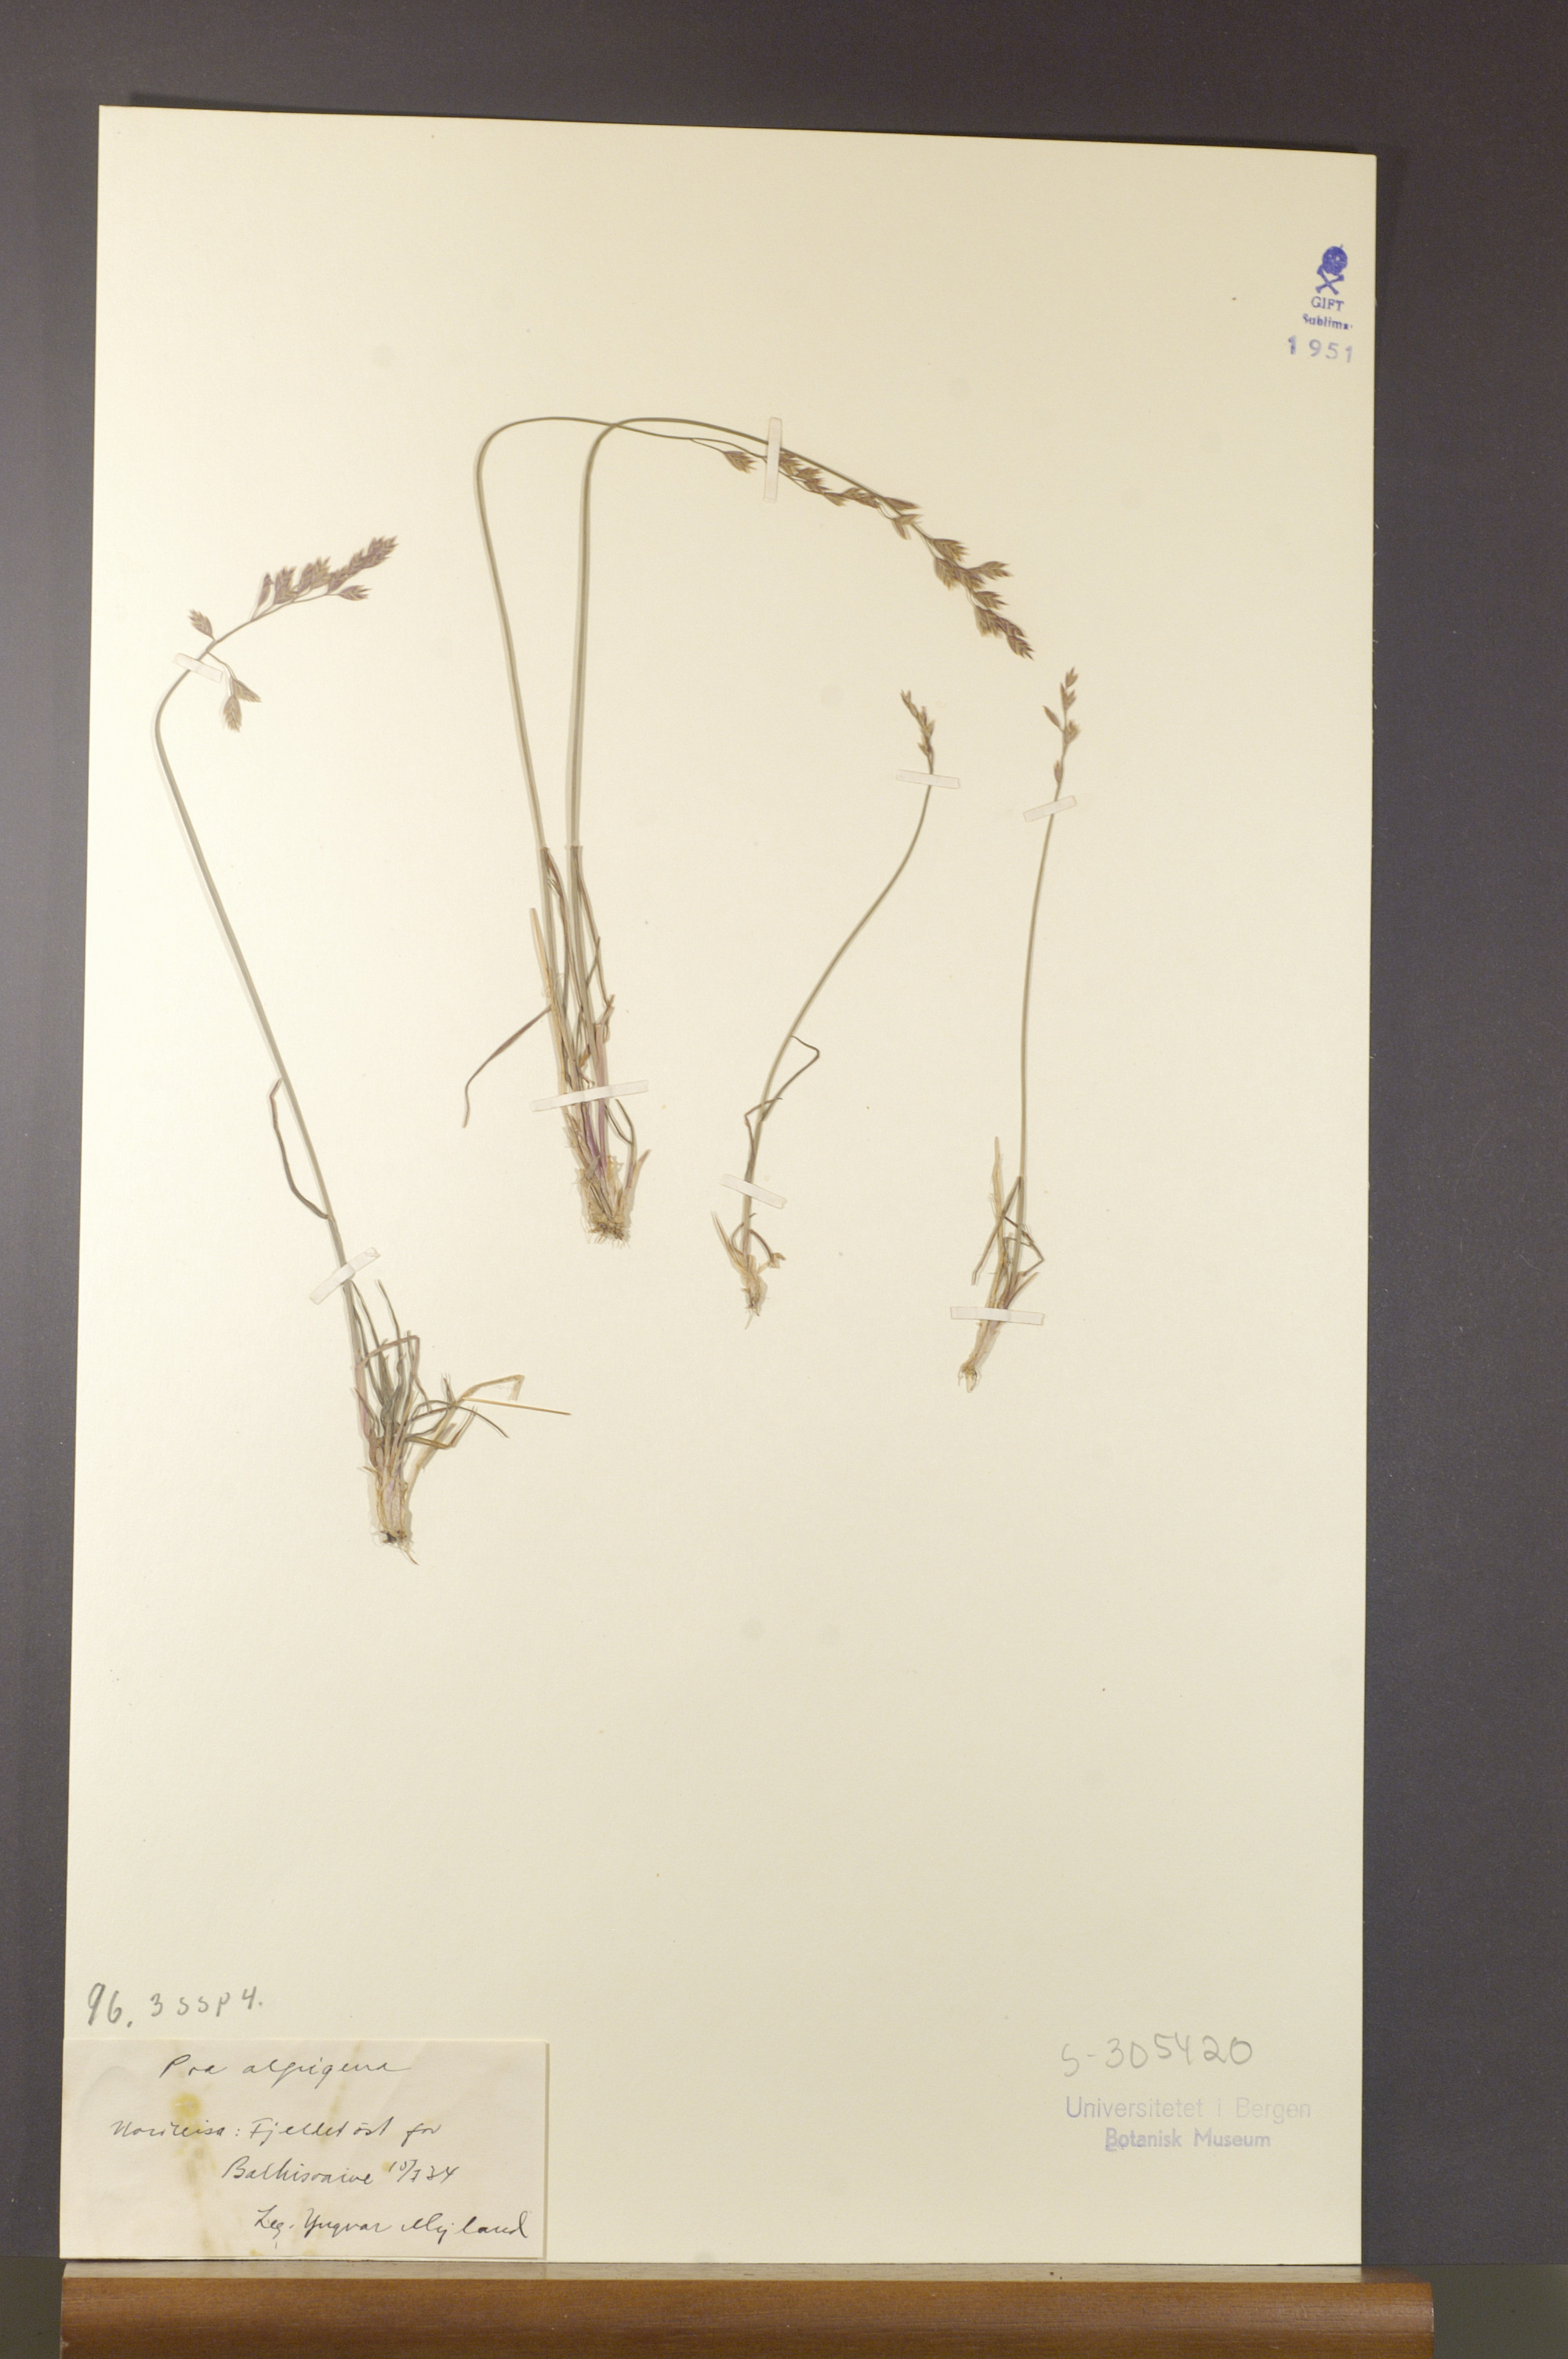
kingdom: Plantae
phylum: Tracheophyta
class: Liliopsida
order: Poales
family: Poaceae
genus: Poa
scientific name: Poa alpigena
